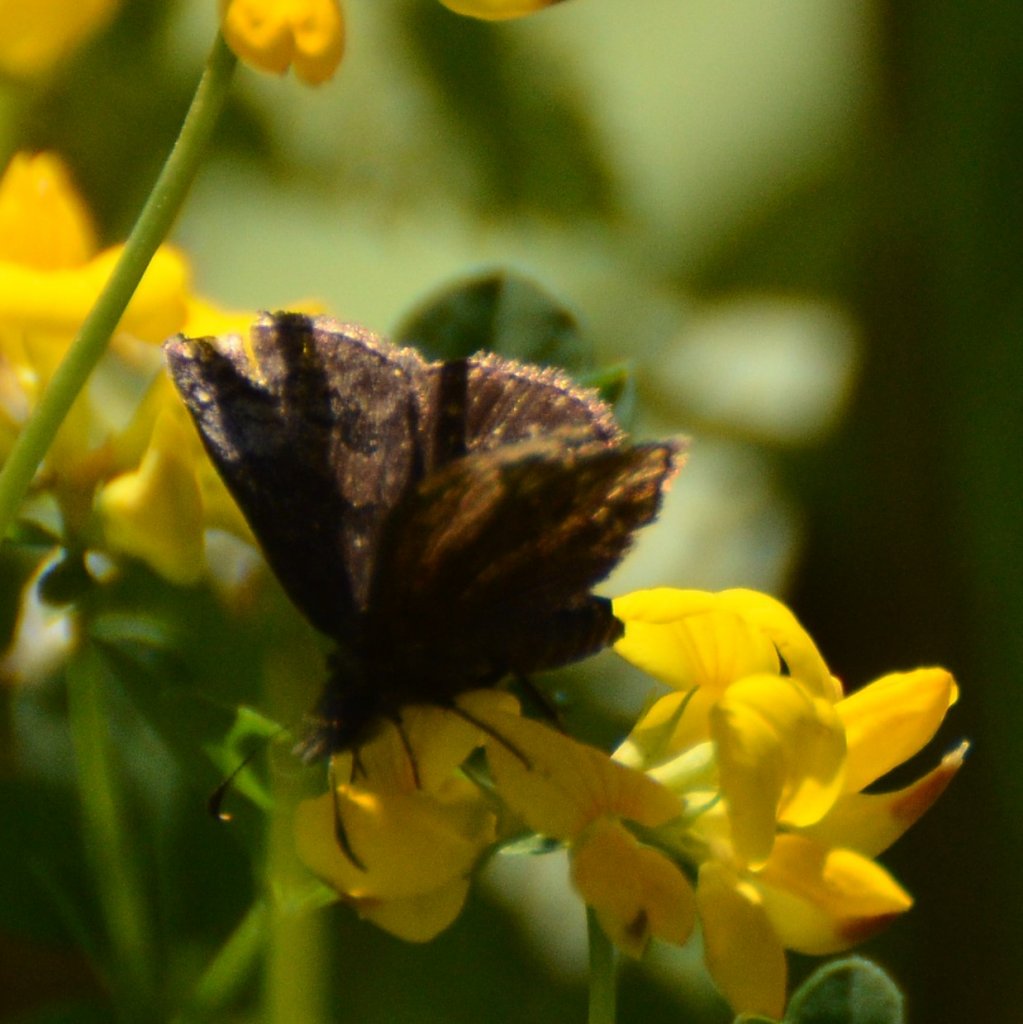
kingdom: Animalia
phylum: Arthropoda
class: Insecta
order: Lepidoptera
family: Hesperiidae
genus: Erynnis
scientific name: Erynnis
